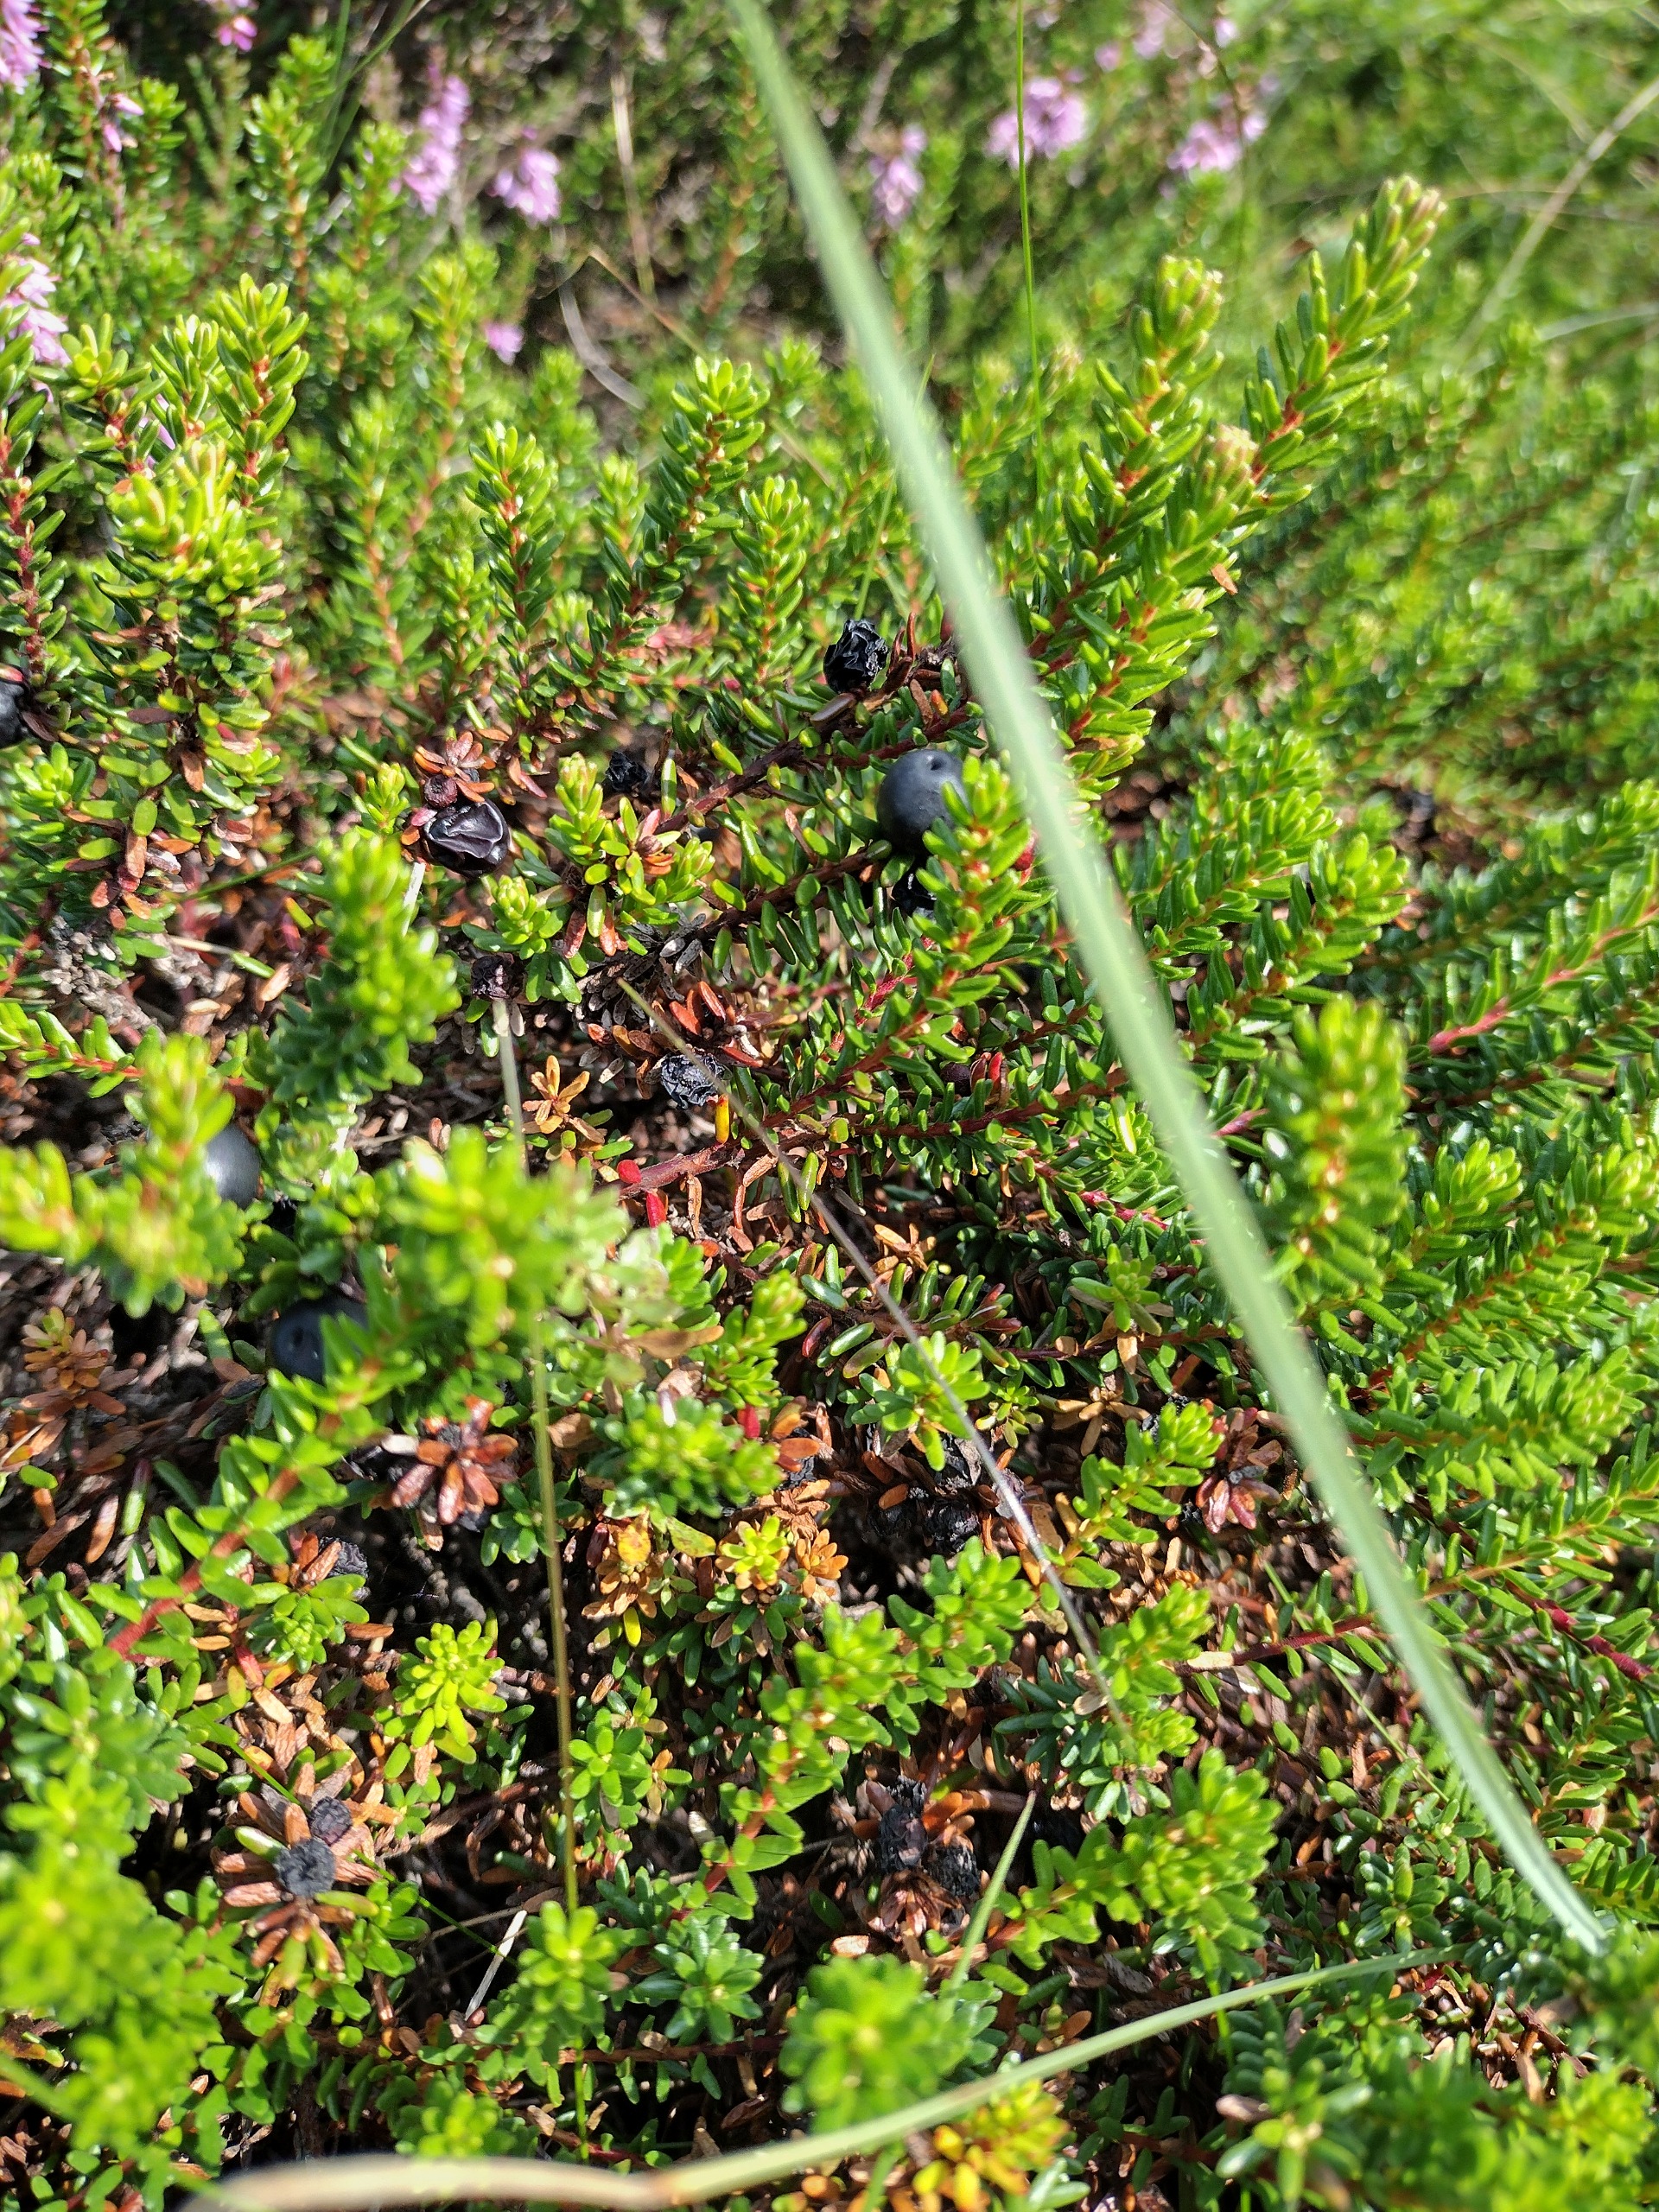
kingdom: Plantae
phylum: Tracheophyta
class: Magnoliopsida
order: Ericales
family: Ericaceae
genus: Empetrum
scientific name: Empetrum nigrum
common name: Revling
